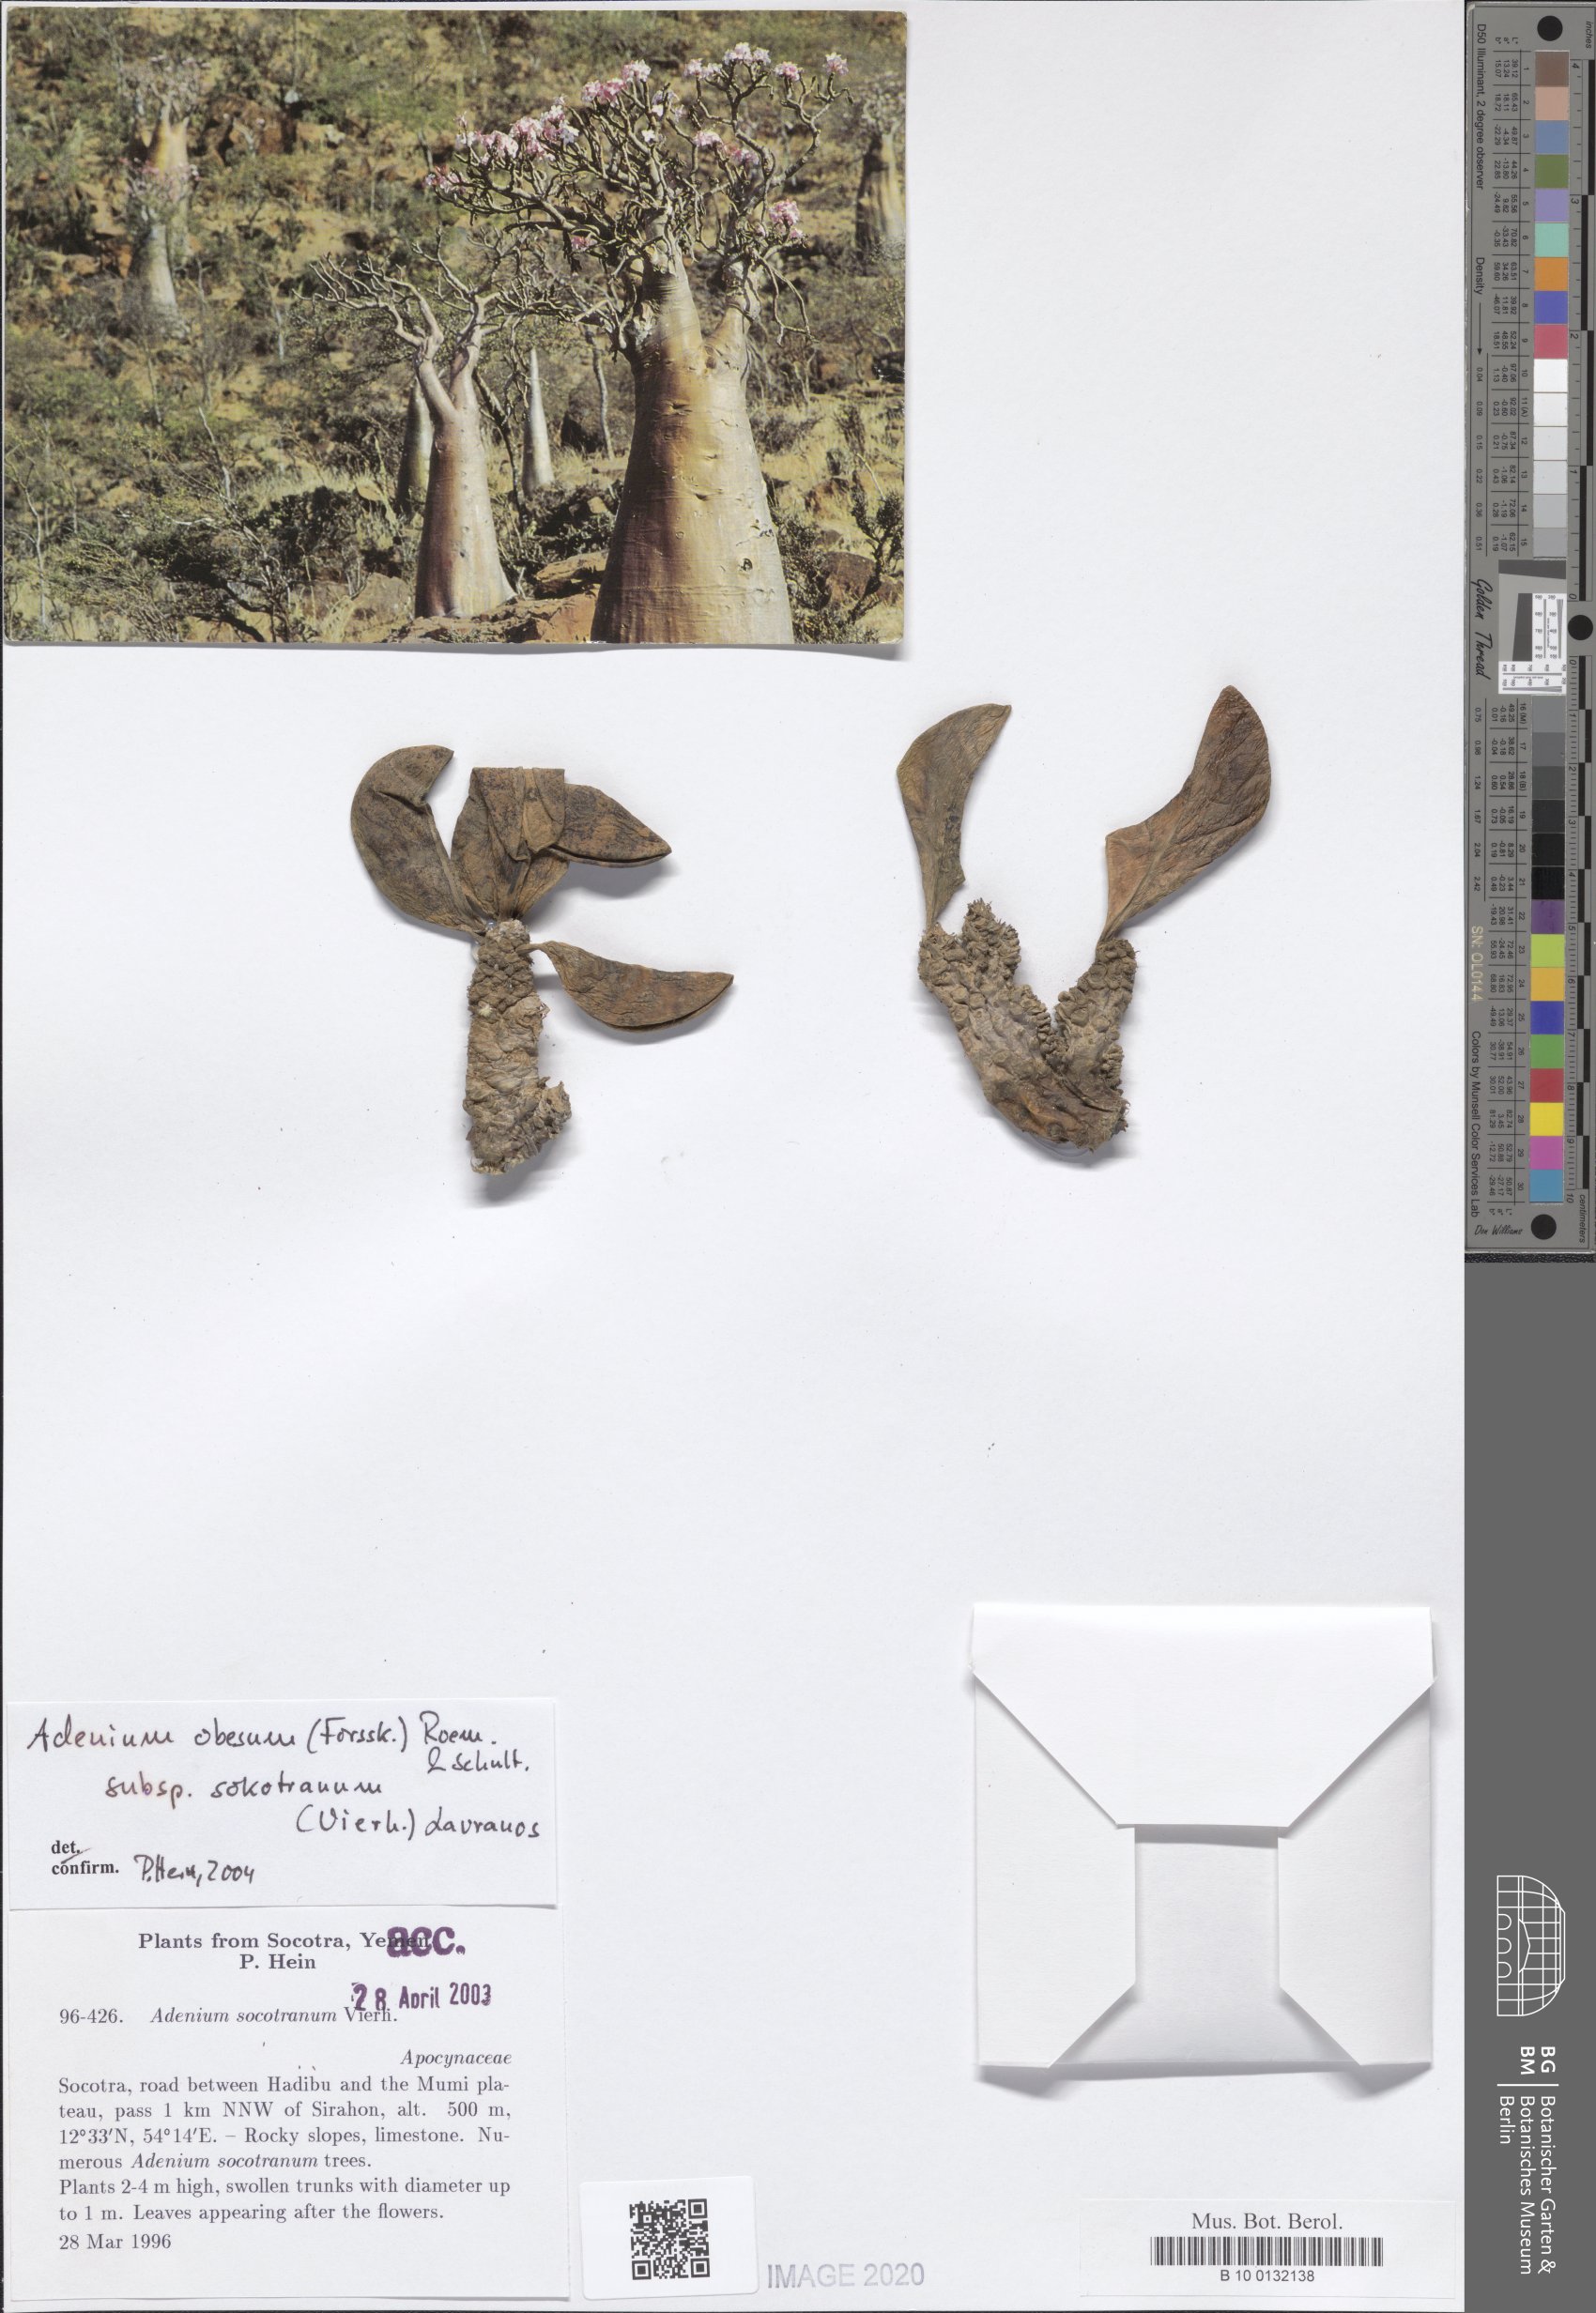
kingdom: Plantae
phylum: Tracheophyta
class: Magnoliopsida
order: Gentianales
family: Apocynaceae
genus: Adenium
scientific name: Adenium obesum
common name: Desert-rose
